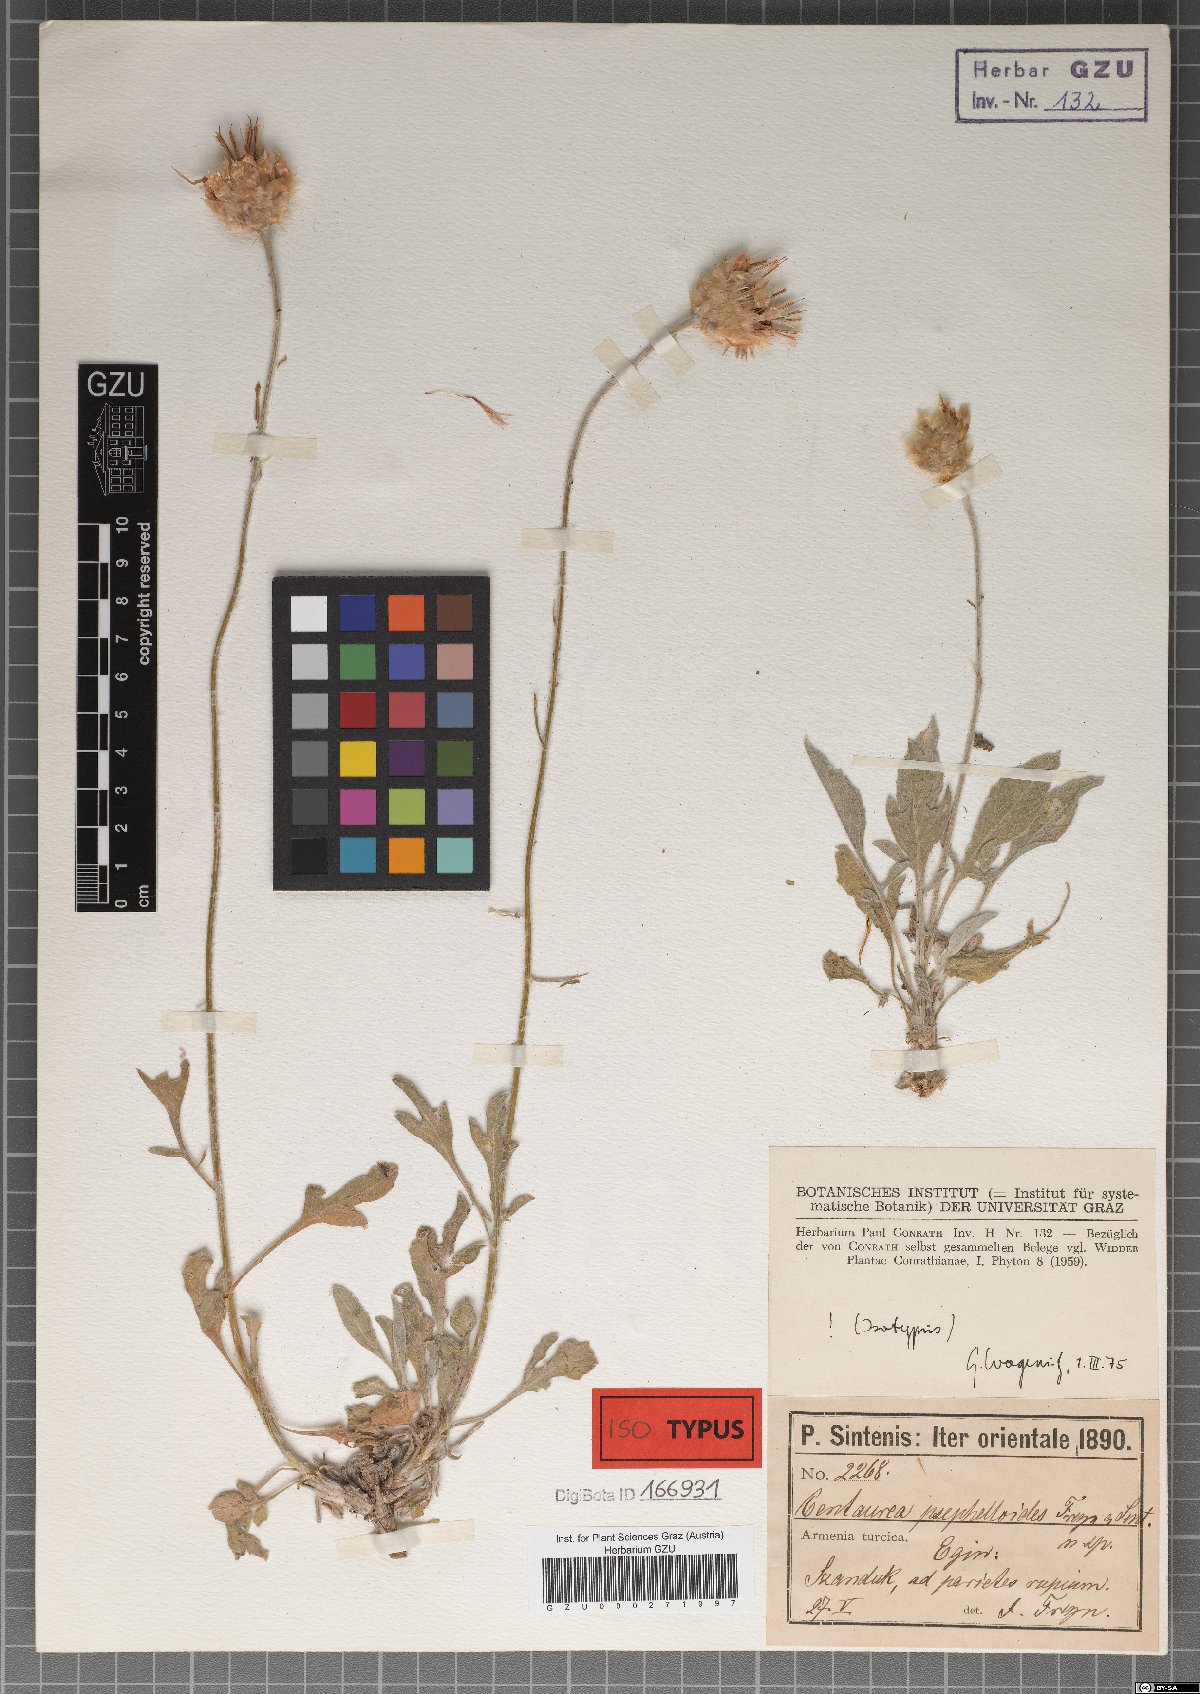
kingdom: Plantae
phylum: Tracheophyta
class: Magnoliopsida
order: Asterales
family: Asteraceae
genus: Psephellus
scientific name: Psephellus psephelloides
